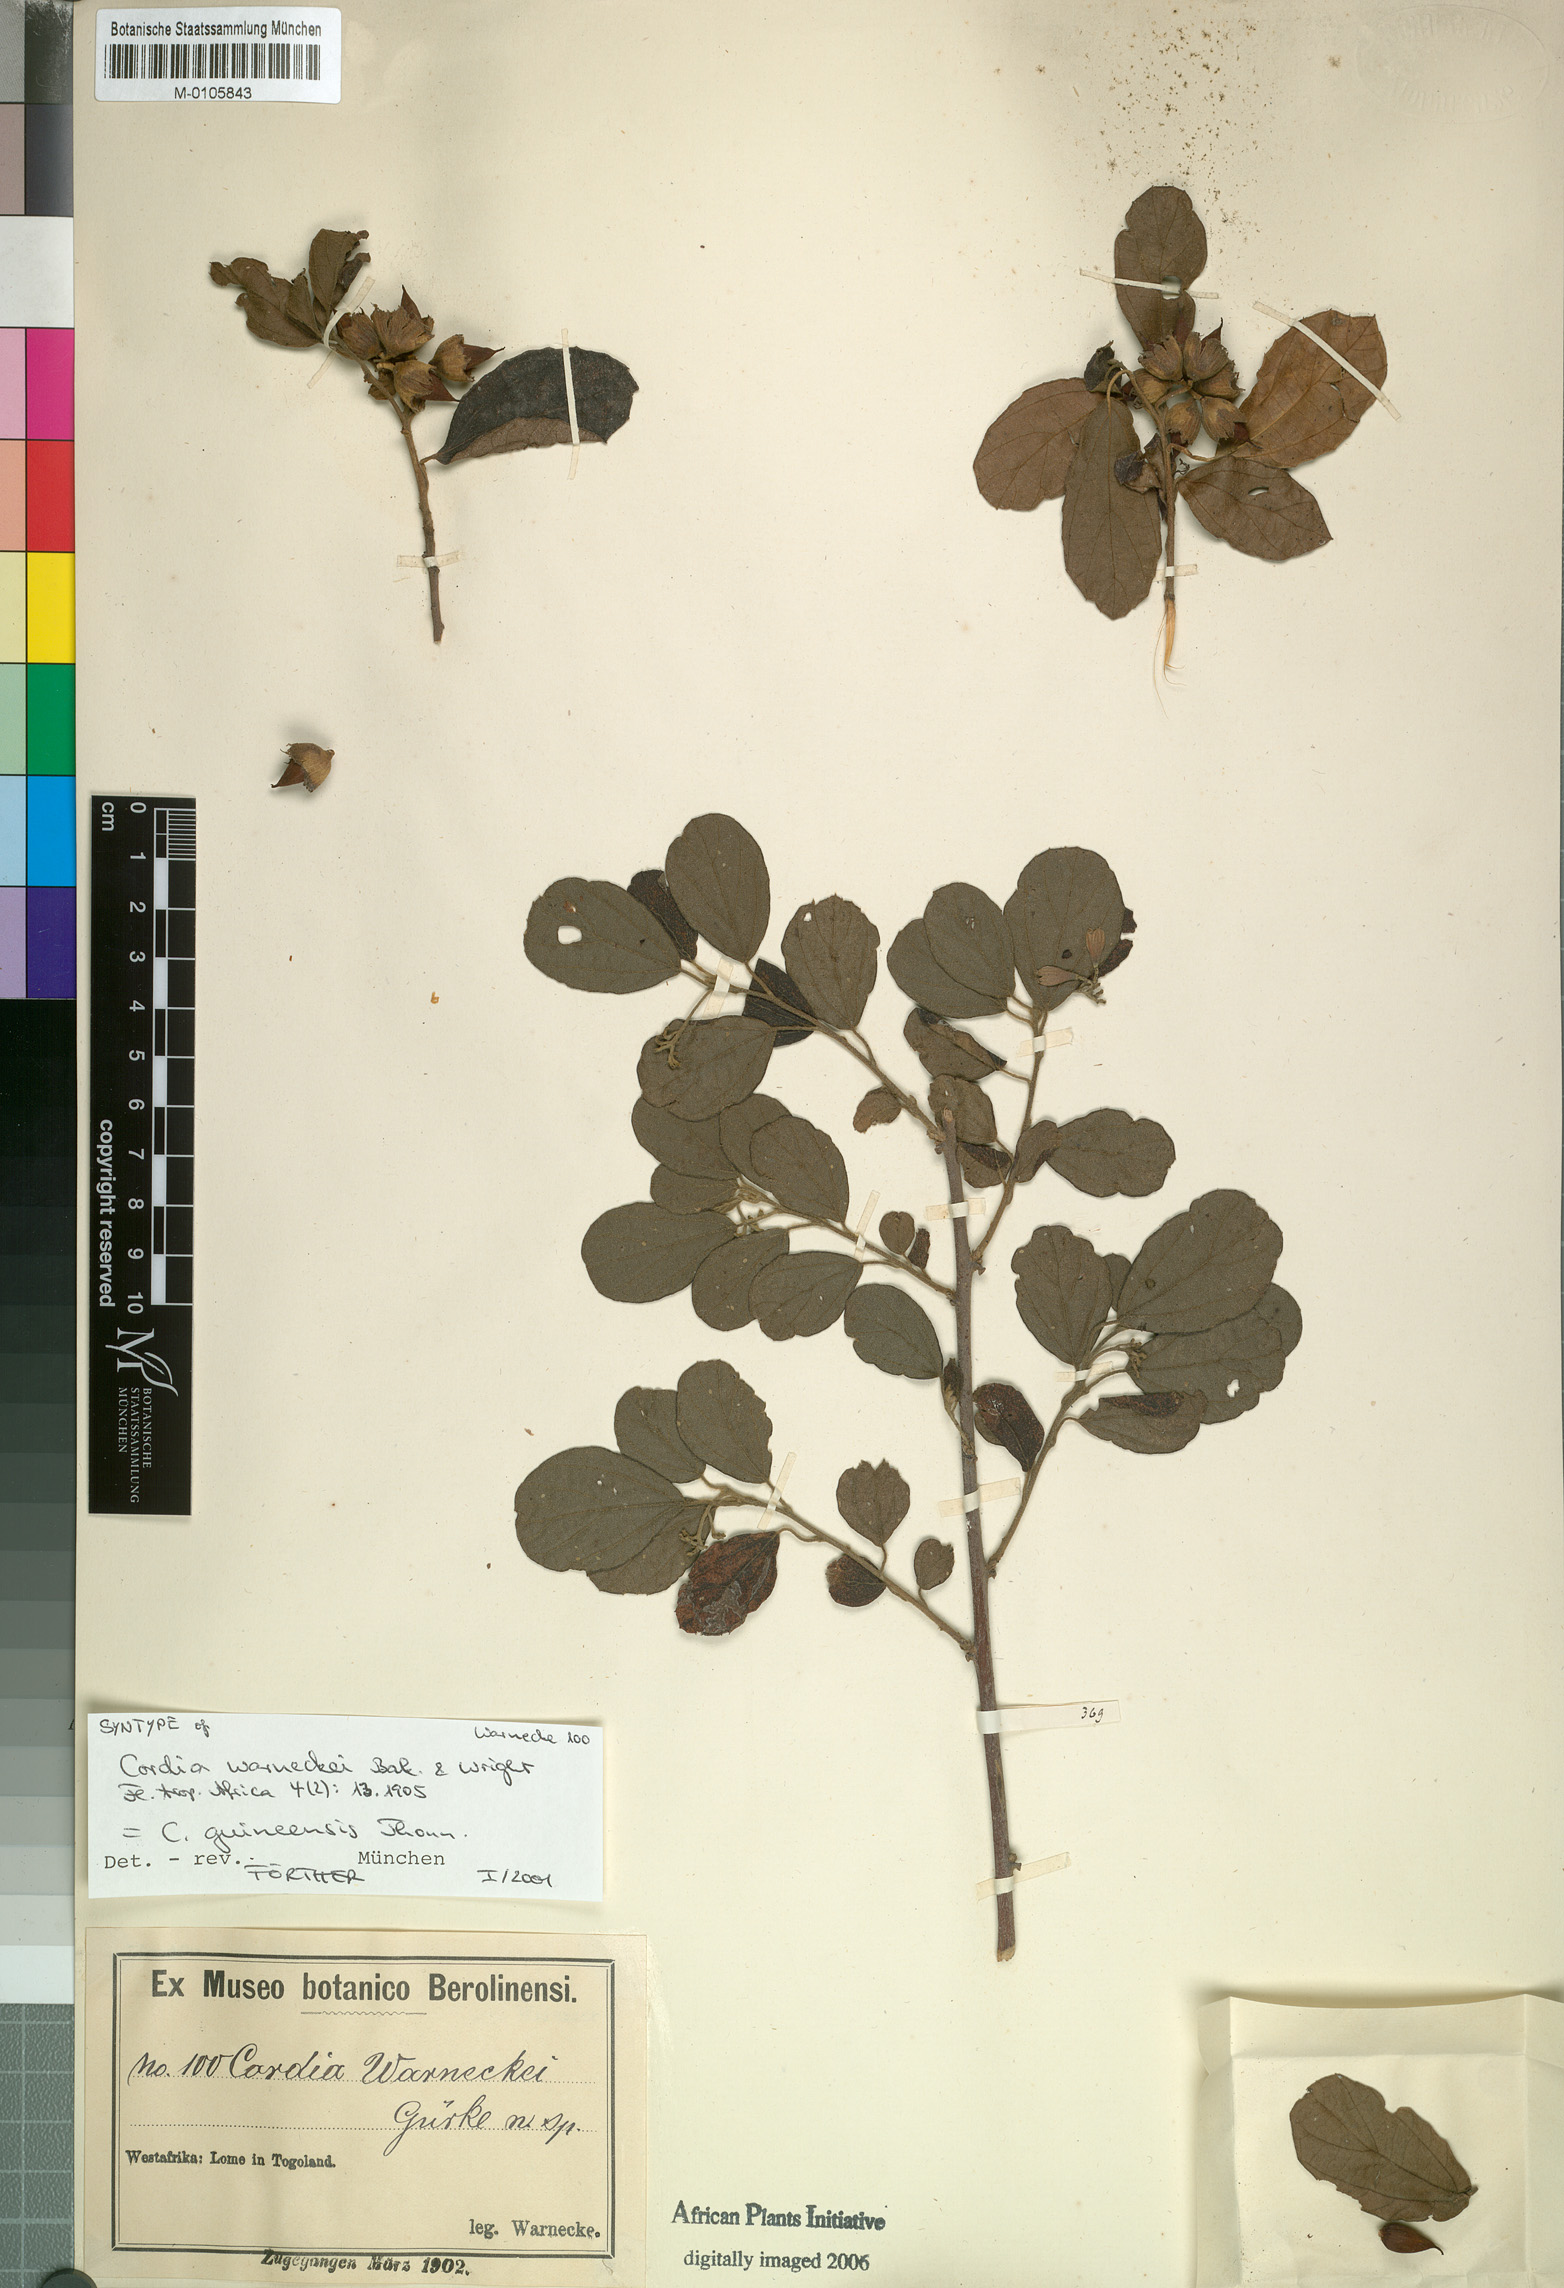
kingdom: Plantae
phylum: Tracheophyta
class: Magnoliopsida
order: Boraginales
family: Cordiaceae
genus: Cordia
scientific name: Cordia guineensis
